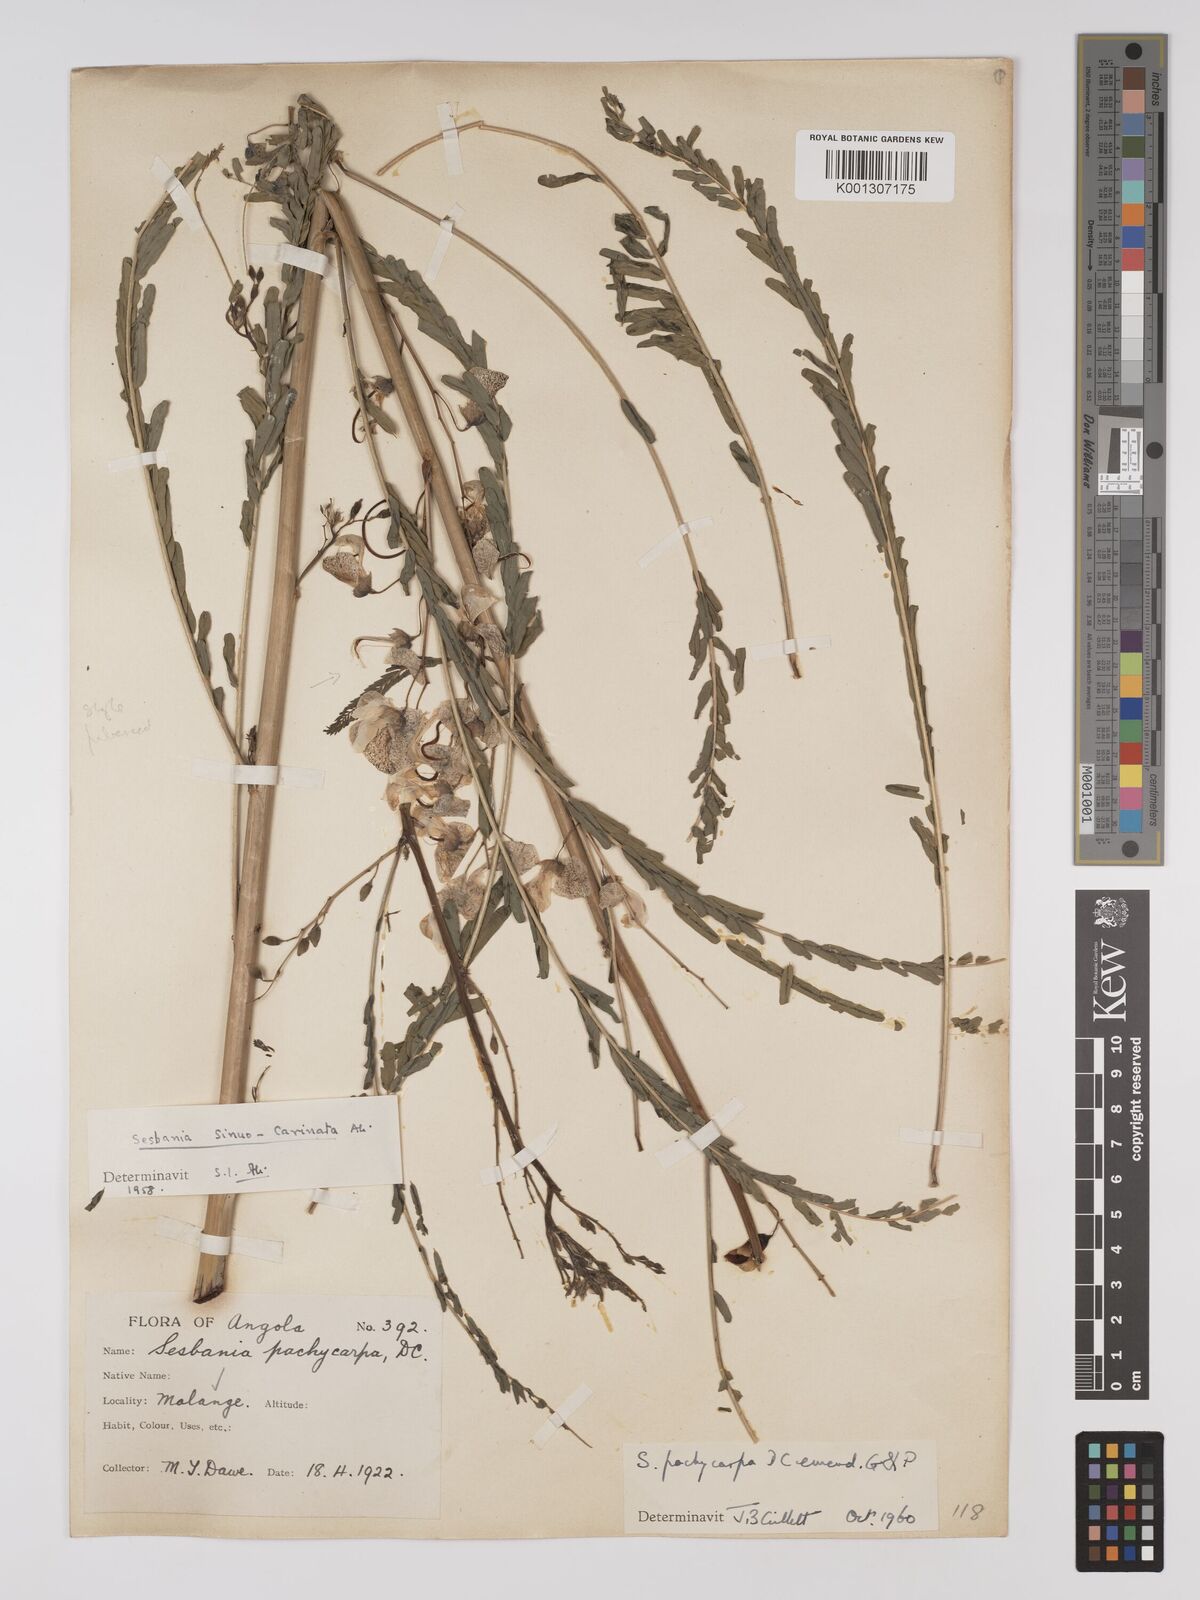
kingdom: Plantae
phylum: Tracheophyta
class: Magnoliopsida
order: Fabales
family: Fabaceae
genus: Sesbania
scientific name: Sesbania pachycarpa
